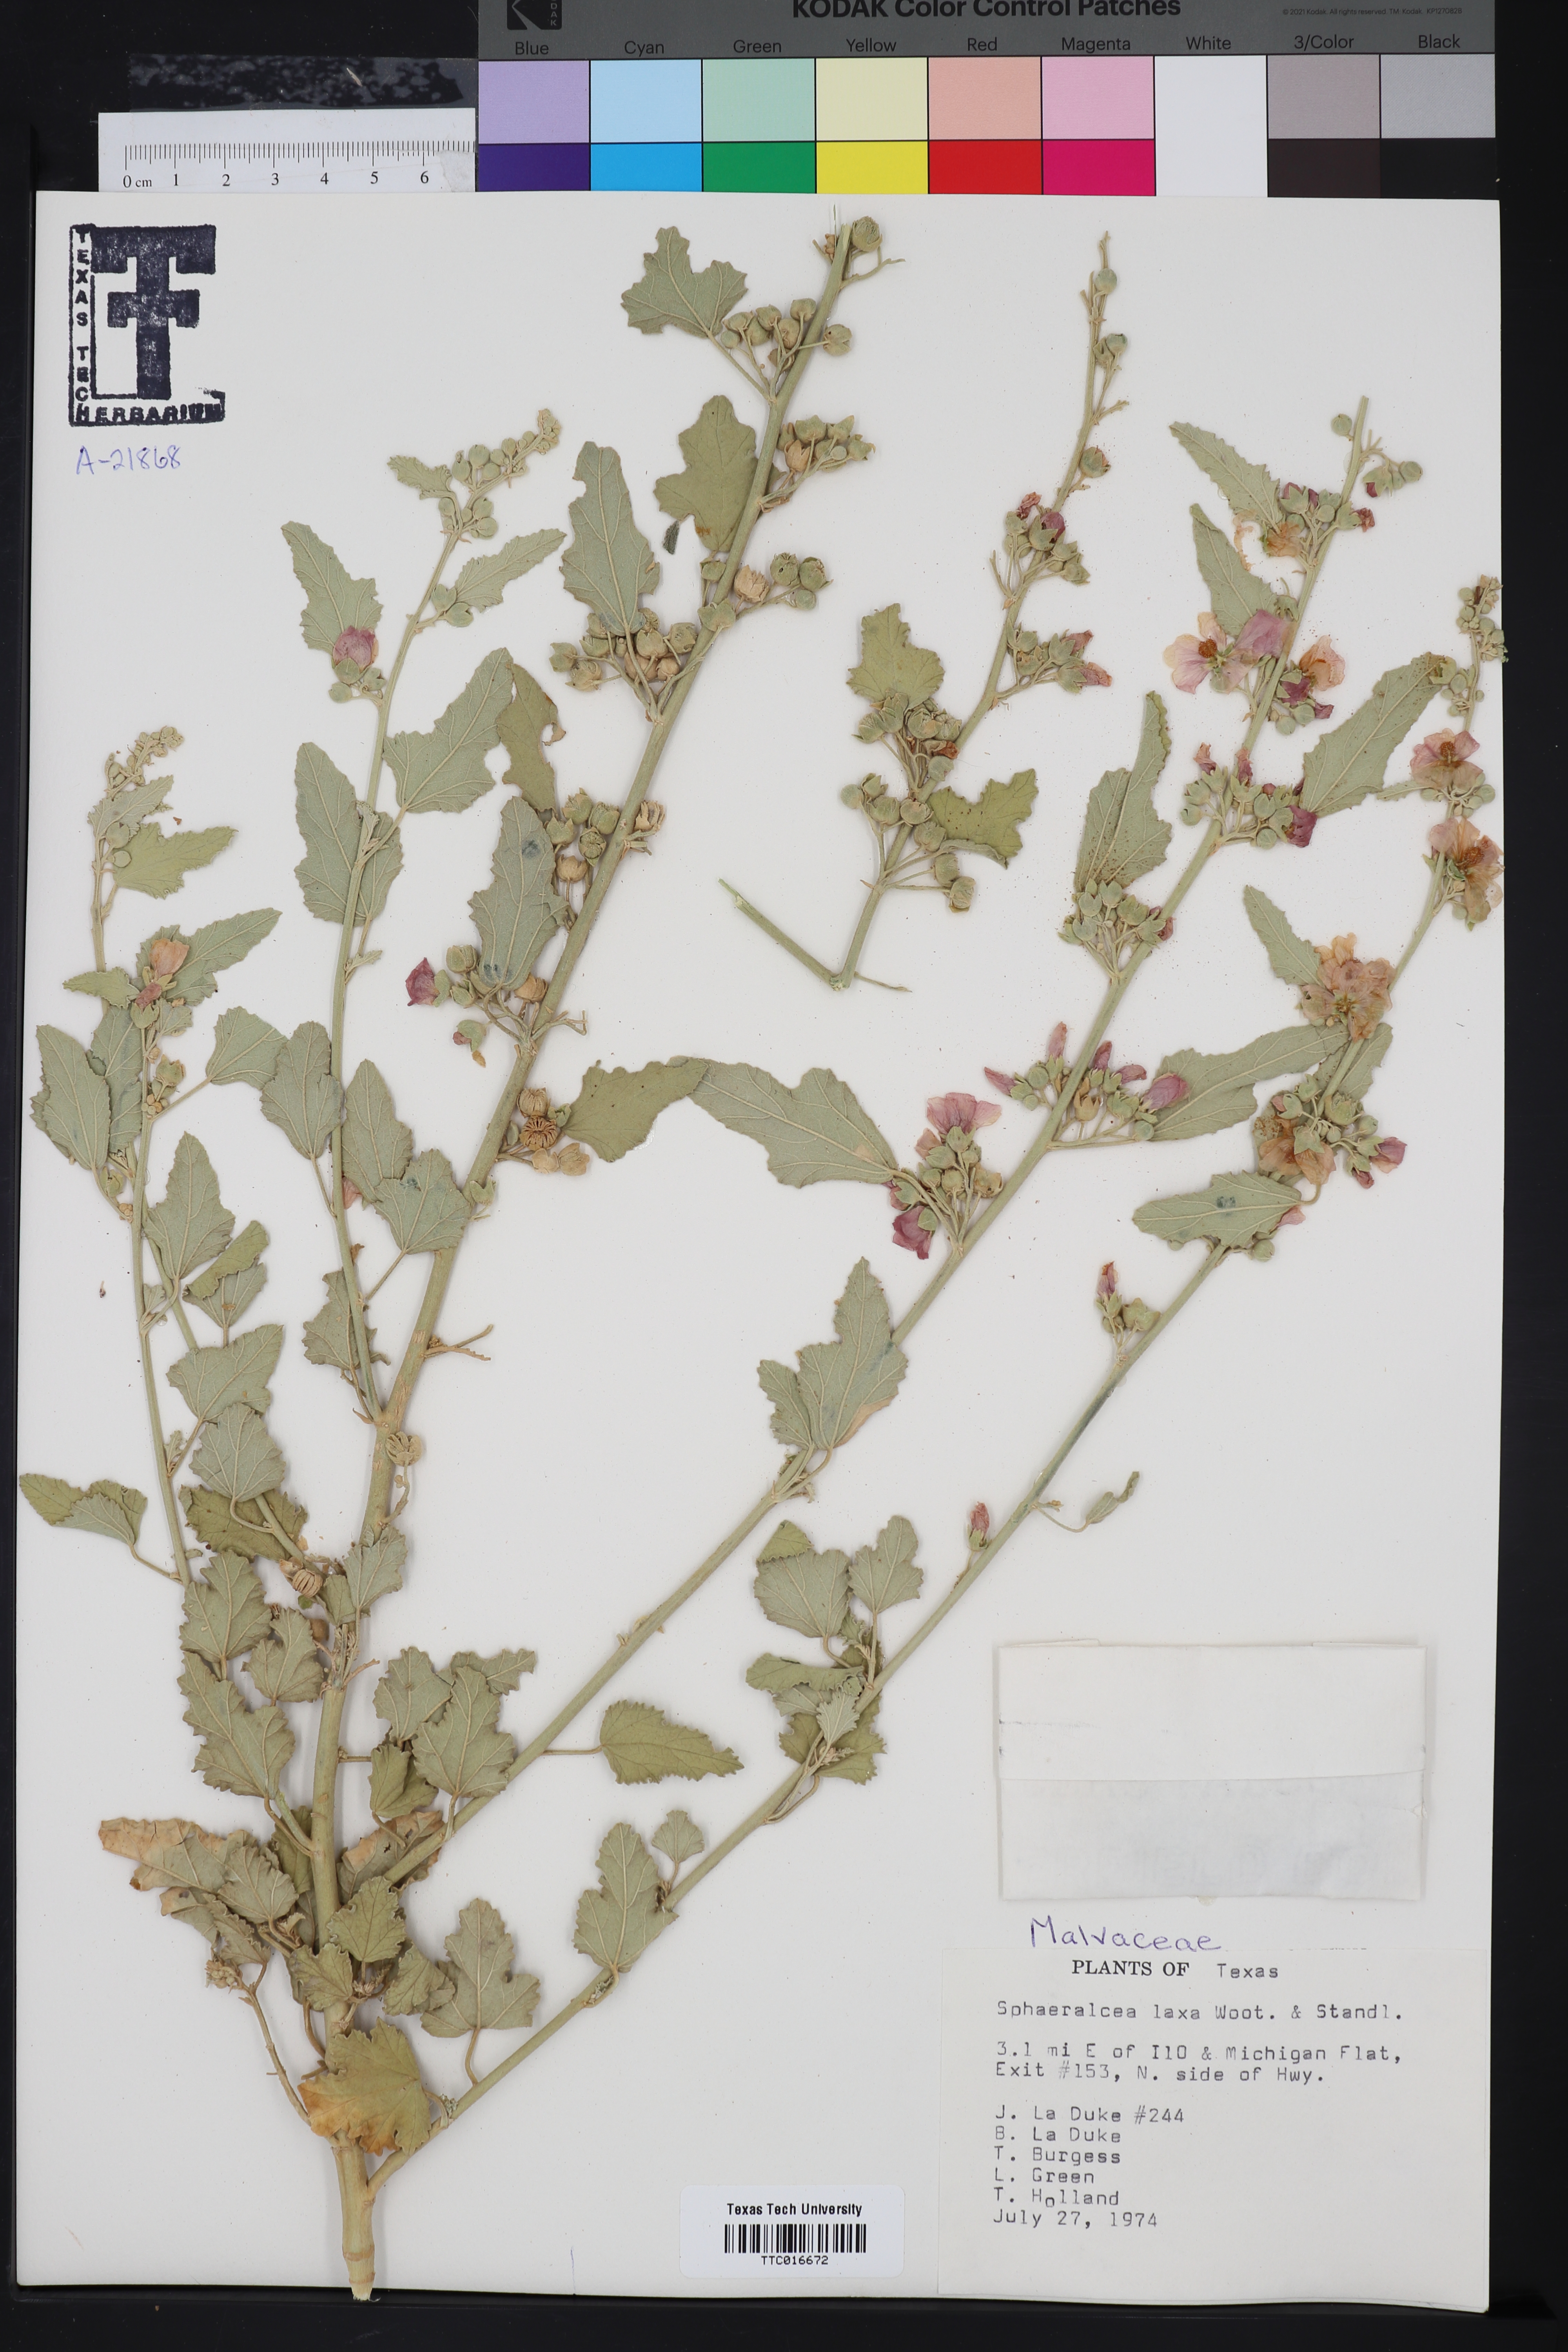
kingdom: Plantae
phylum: Tracheophyta
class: Magnoliopsida
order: Malvales
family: Malvaceae
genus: Sphaeralcea
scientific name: Sphaeralcea laxa
